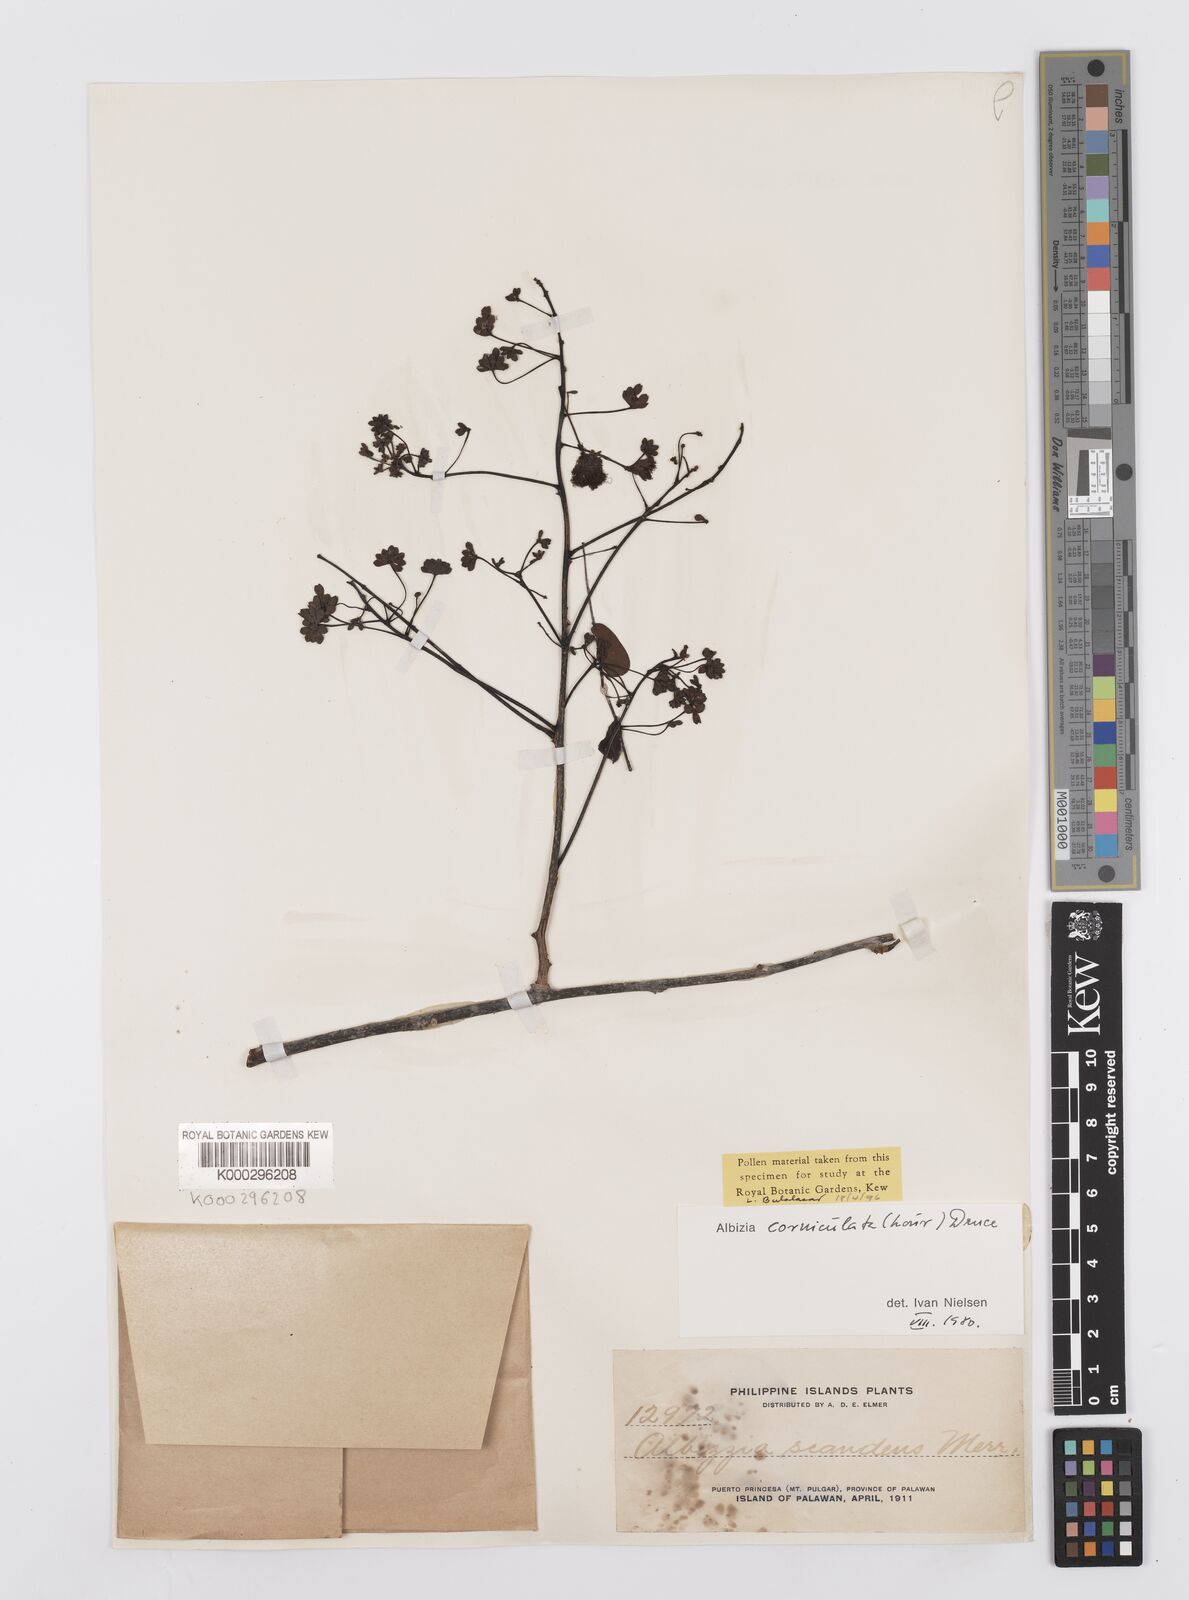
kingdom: Plantae
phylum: Tracheophyta
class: Magnoliopsida
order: Fabales
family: Fabaceae
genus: Albizia
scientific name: Albizia corniculata
